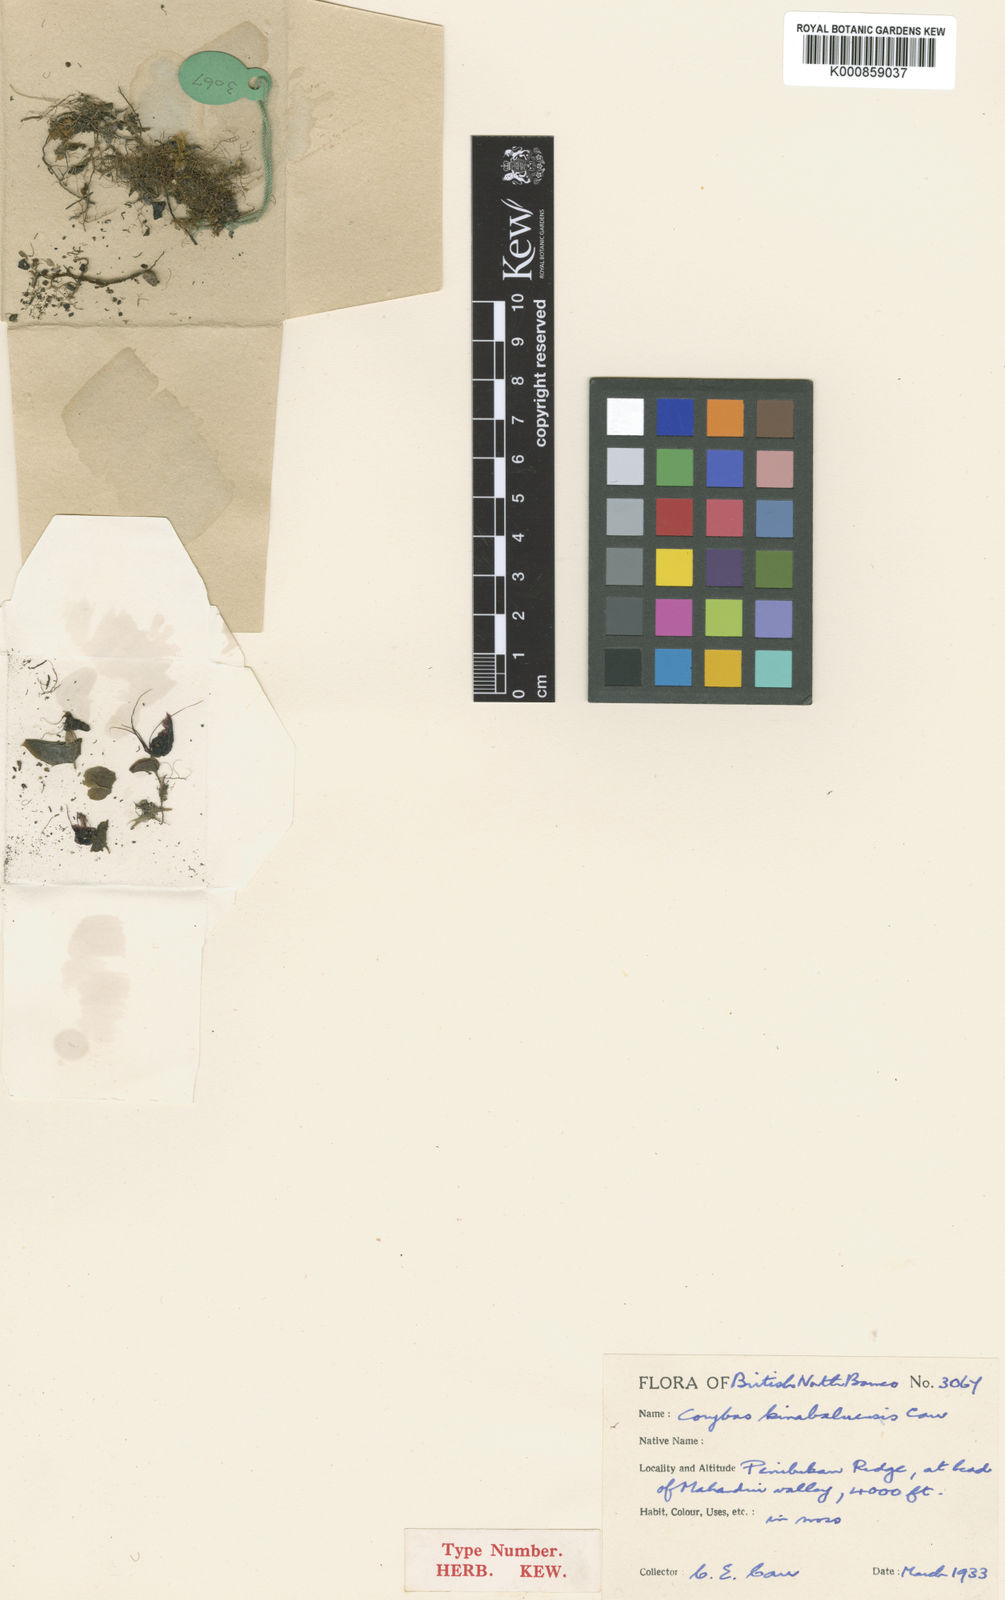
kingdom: Plantae
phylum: Tracheophyta
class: Liliopsida
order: Asparagales
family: Orchidaceae
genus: Corybas
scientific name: Corybas kinabaluensis
